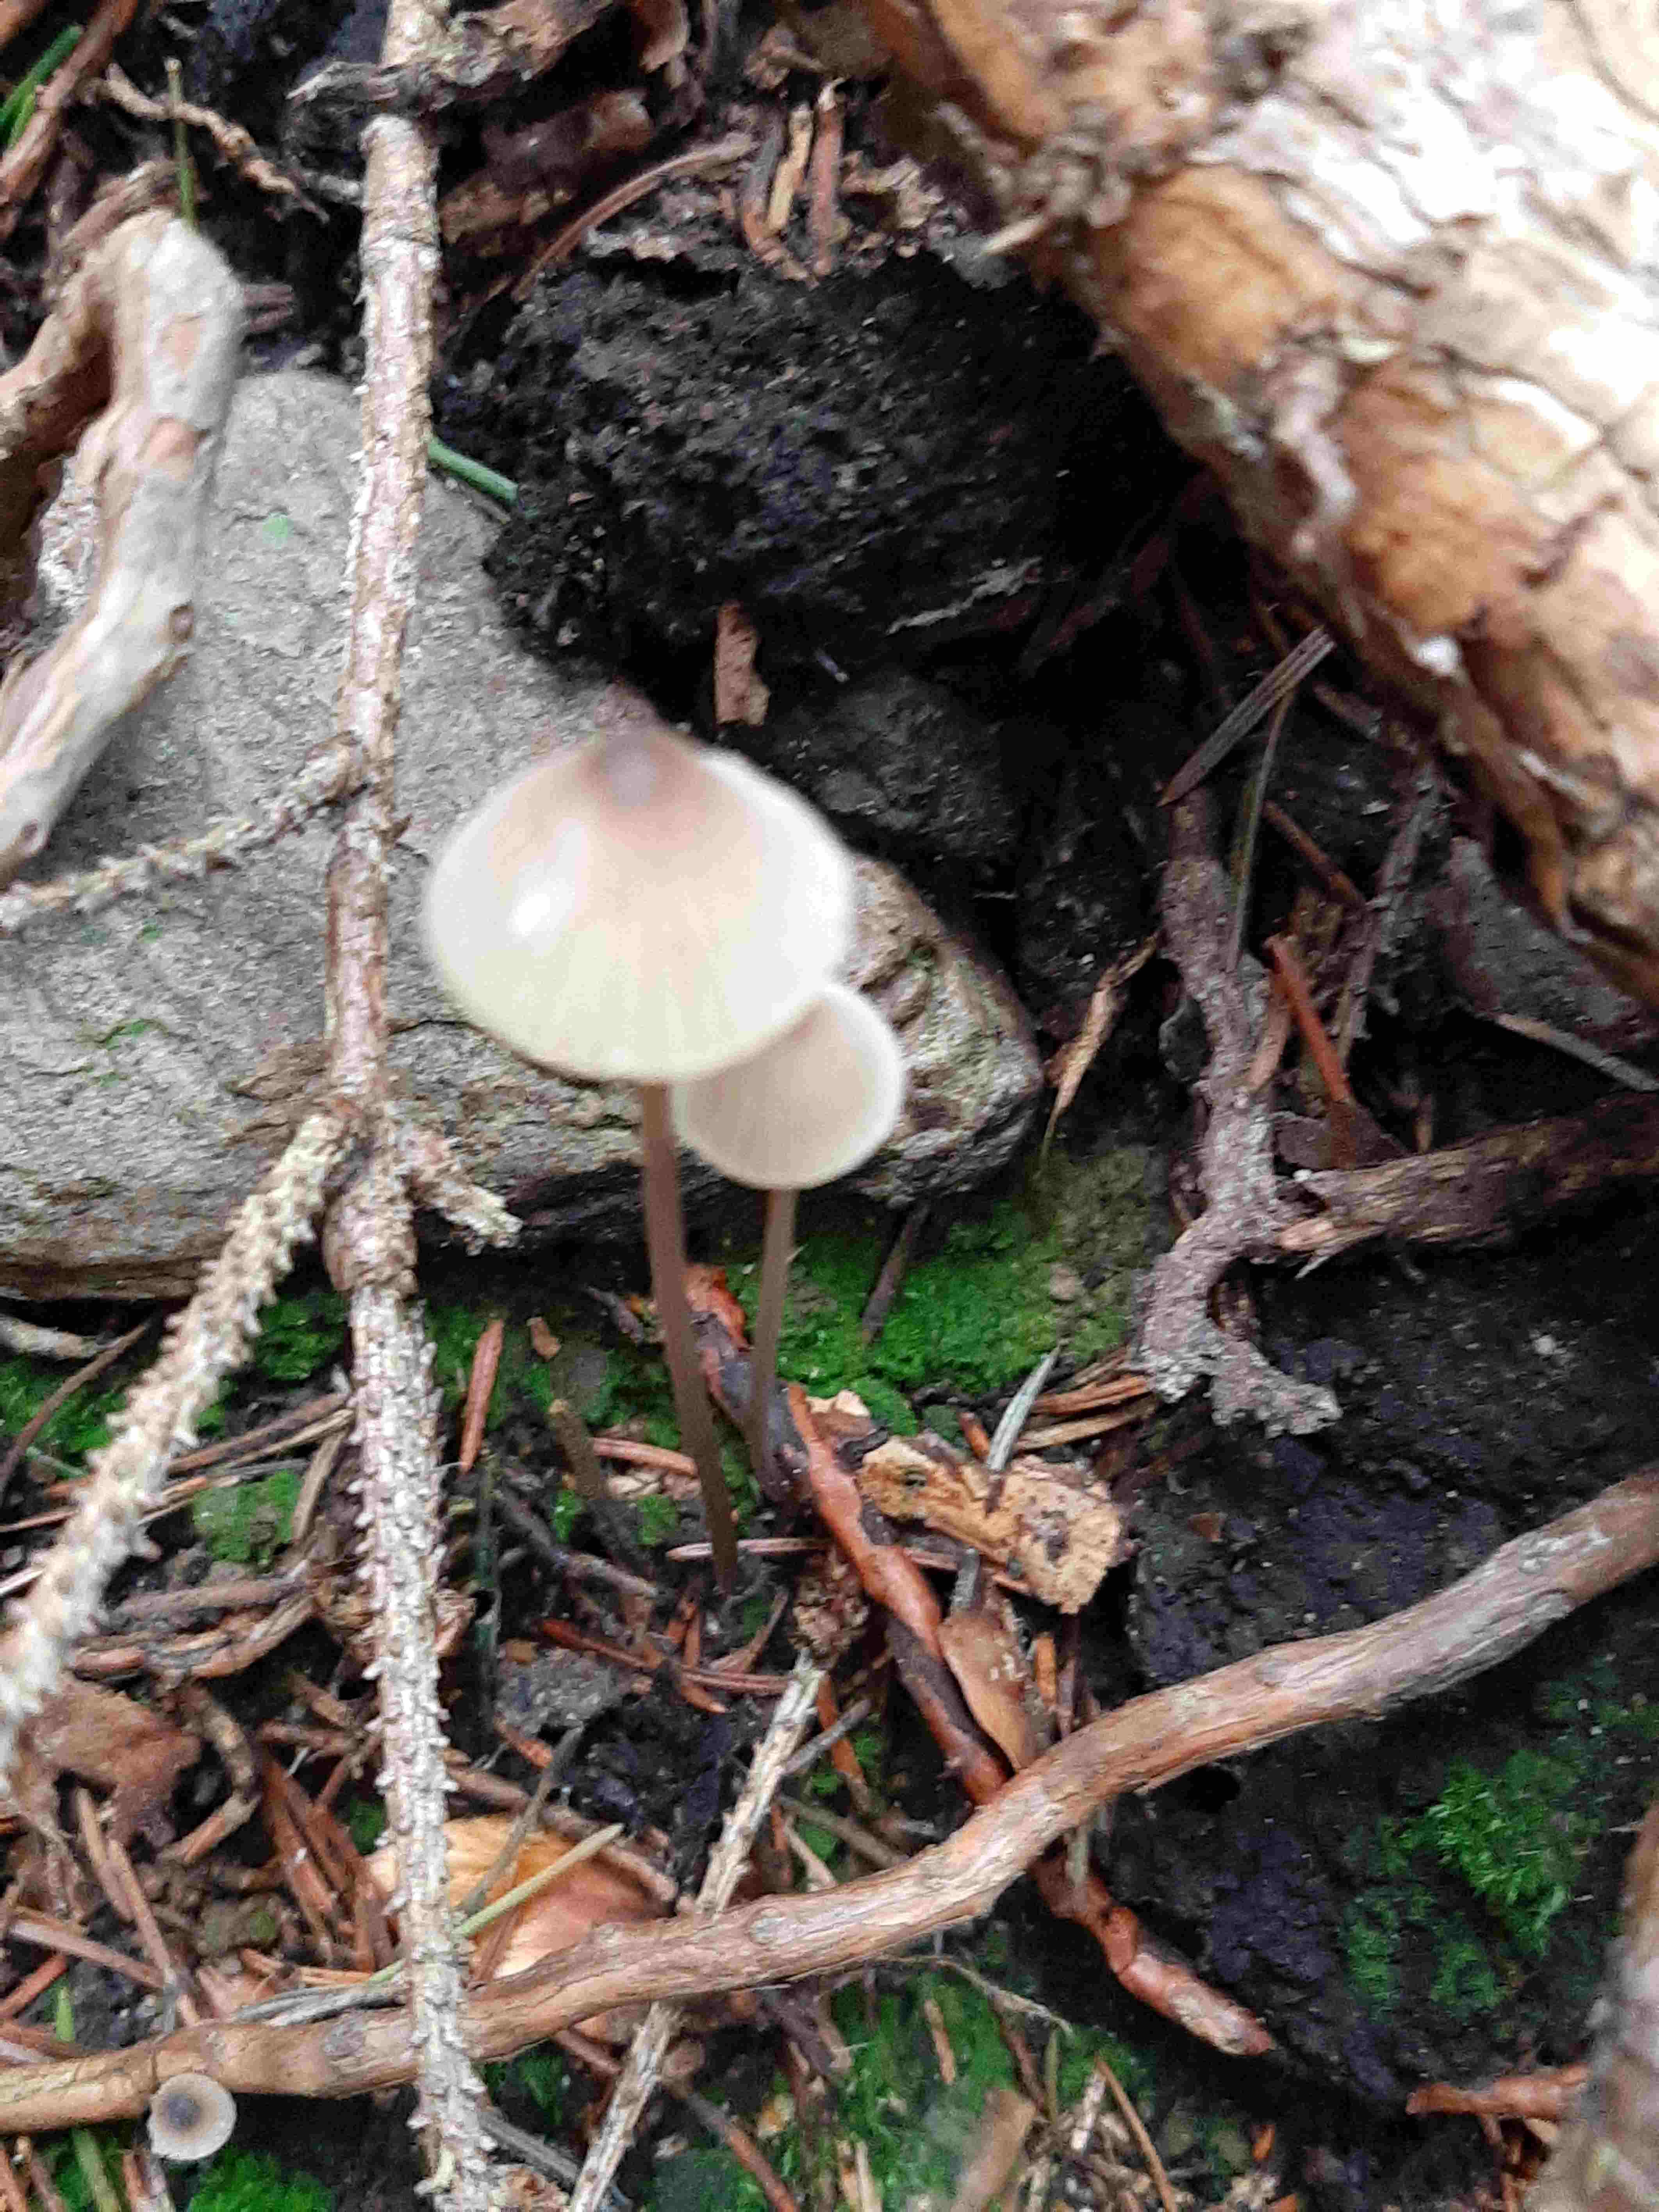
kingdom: Fungi
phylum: Basidiomycota
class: Agaricomycetes
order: Agaricales
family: Mycenaceae
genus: Mycena
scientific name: Mycena galopus
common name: hvidmælket huesvamp
